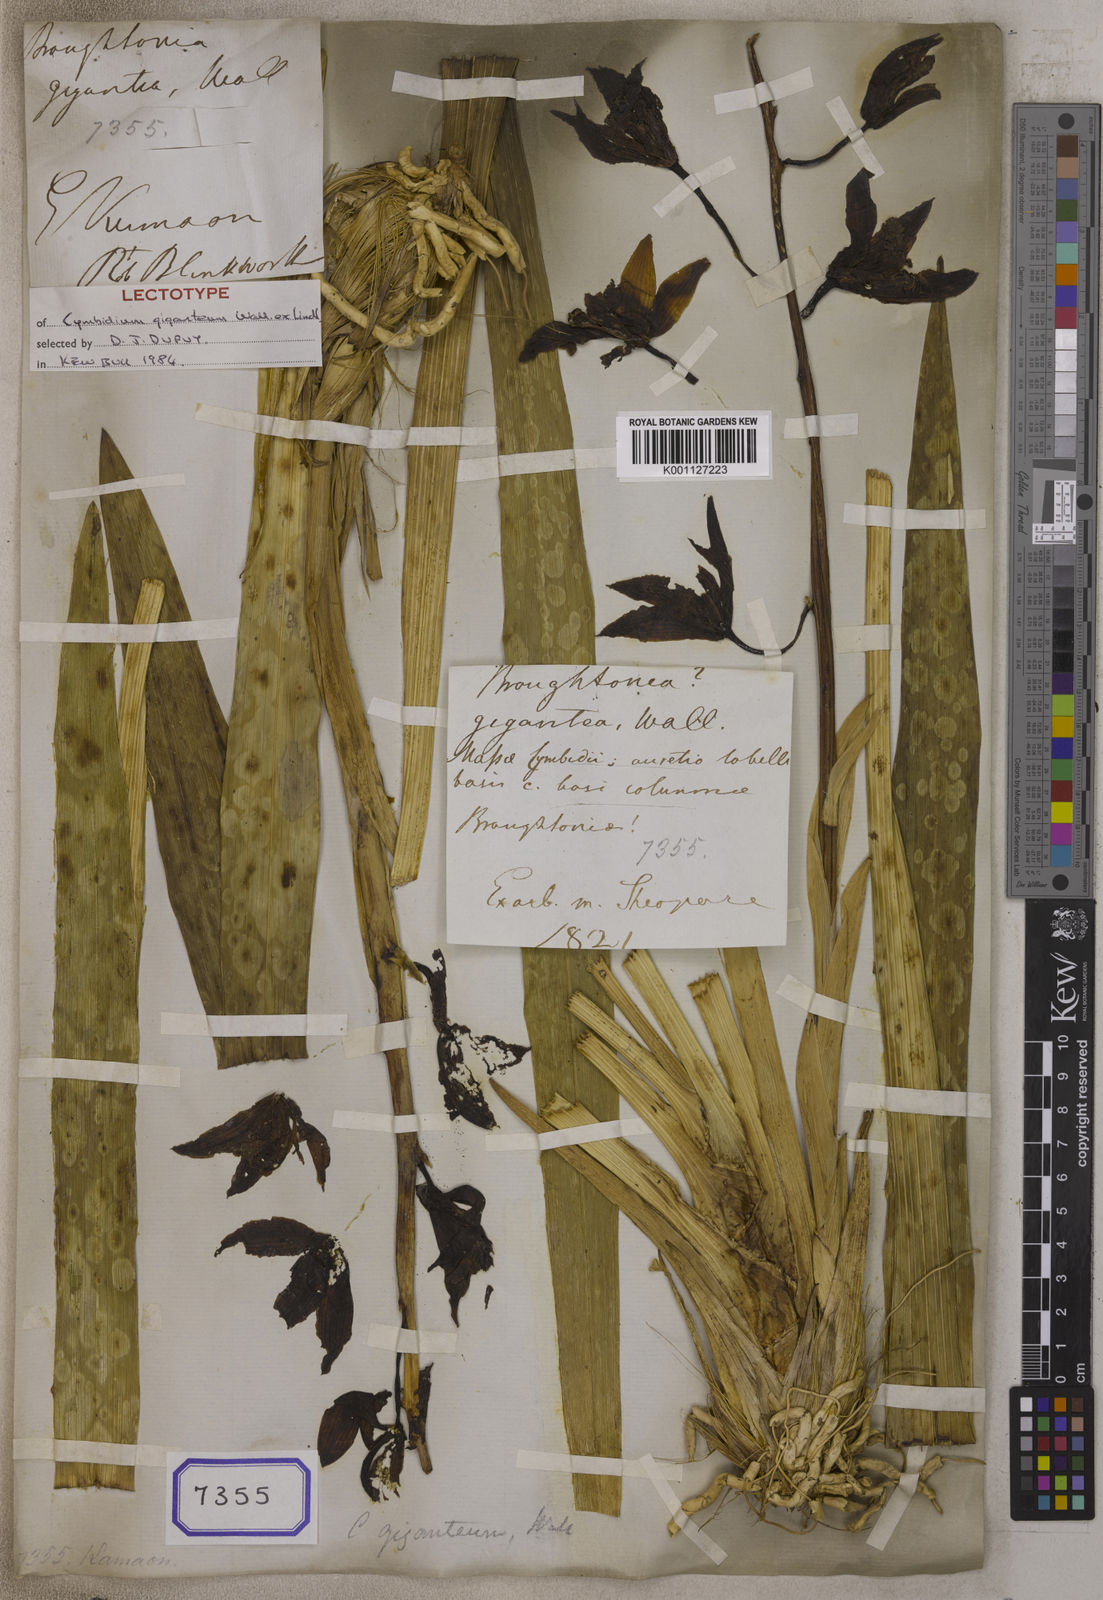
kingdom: Plantae
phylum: Tracheophyta
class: Liliopsida
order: Asparagales
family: Orchidaceae
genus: Cymbidium
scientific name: Cymbidium
